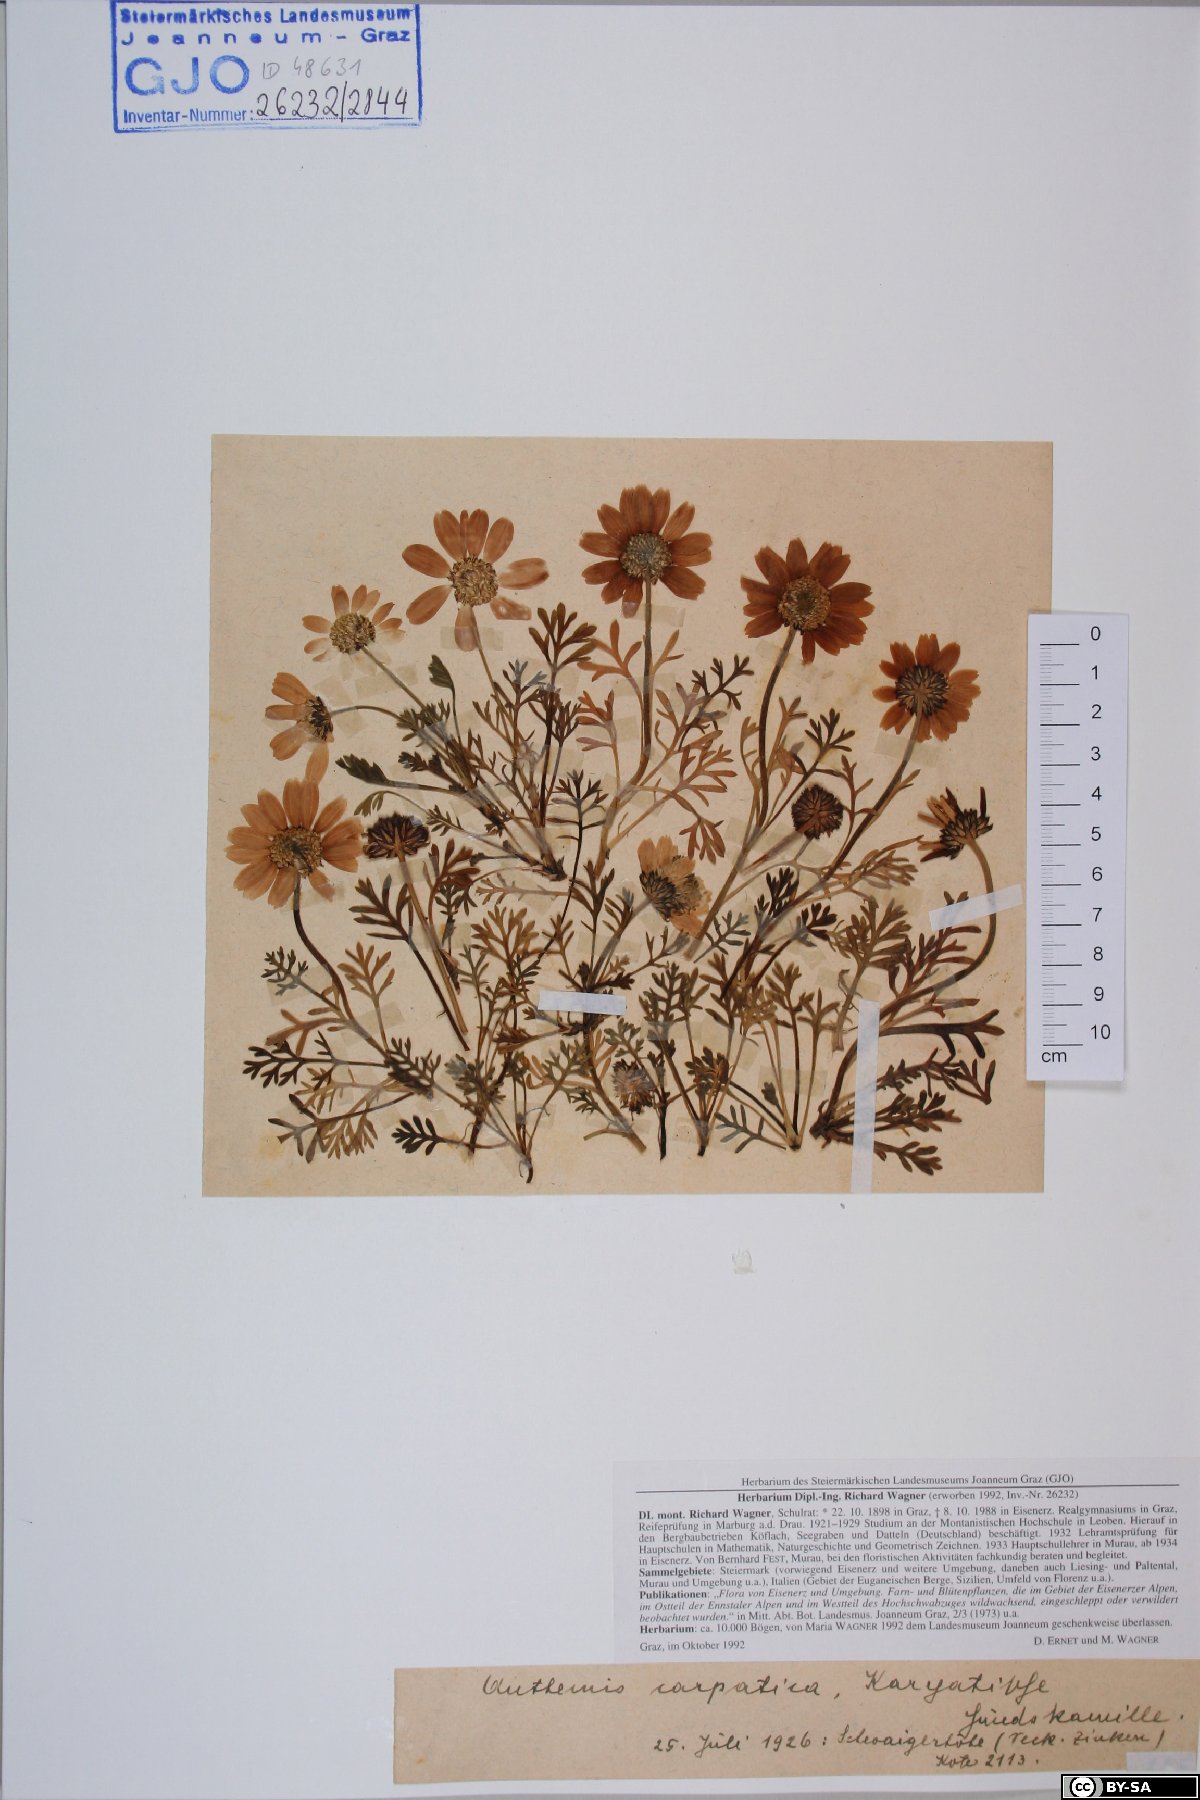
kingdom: Plantae
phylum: Tracheophyta
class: Magnoliopsida
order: Asterales
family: Asteraceae
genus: Anthemis
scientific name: Anthemis cretica
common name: Mountain dog-daisy
